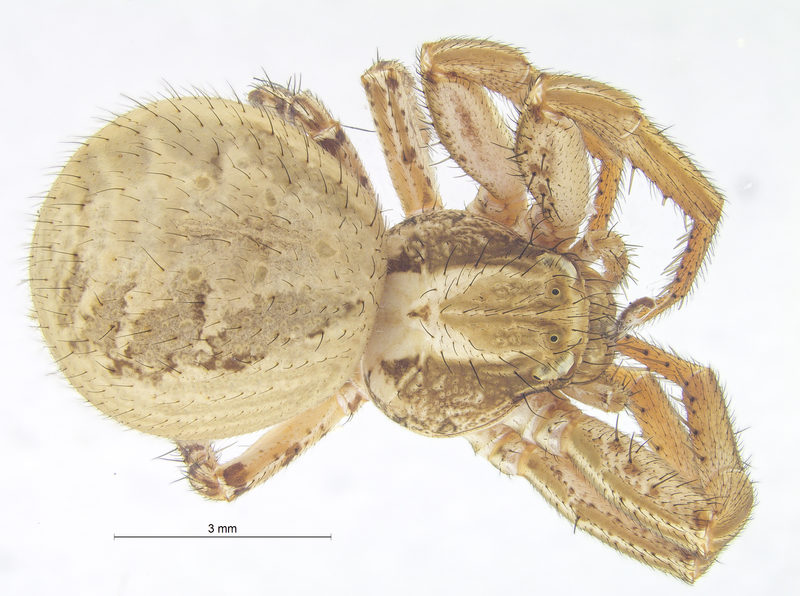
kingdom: Animalia
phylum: Arthropoda
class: Arachnida
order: Araneae
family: Thomisidae
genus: Xysticus
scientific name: Xysticus kochi
